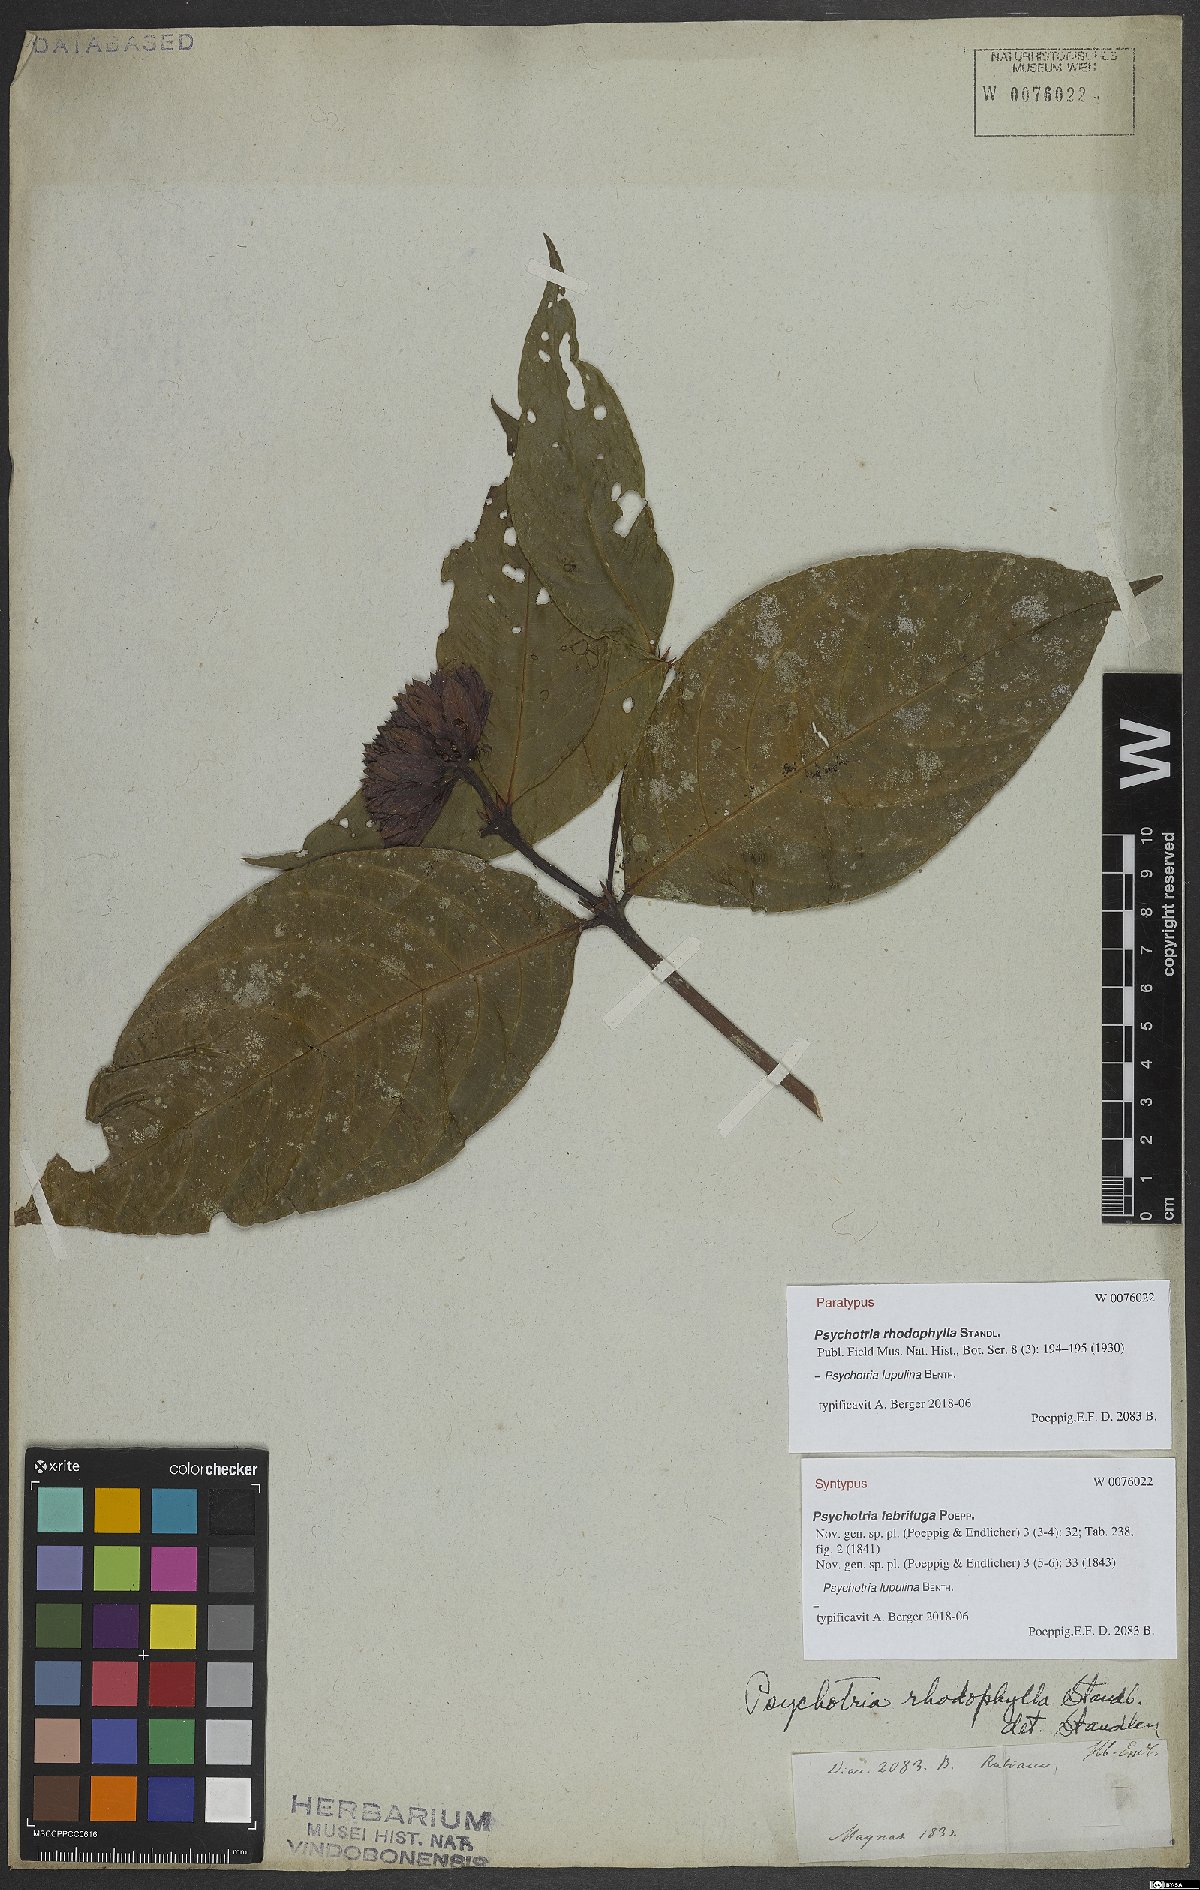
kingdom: Plantae
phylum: Tracheophyta
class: Magnoliopsida
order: Gentianales
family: Rubiaceae
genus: Palicourea
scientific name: Palicourea justiciifolia
